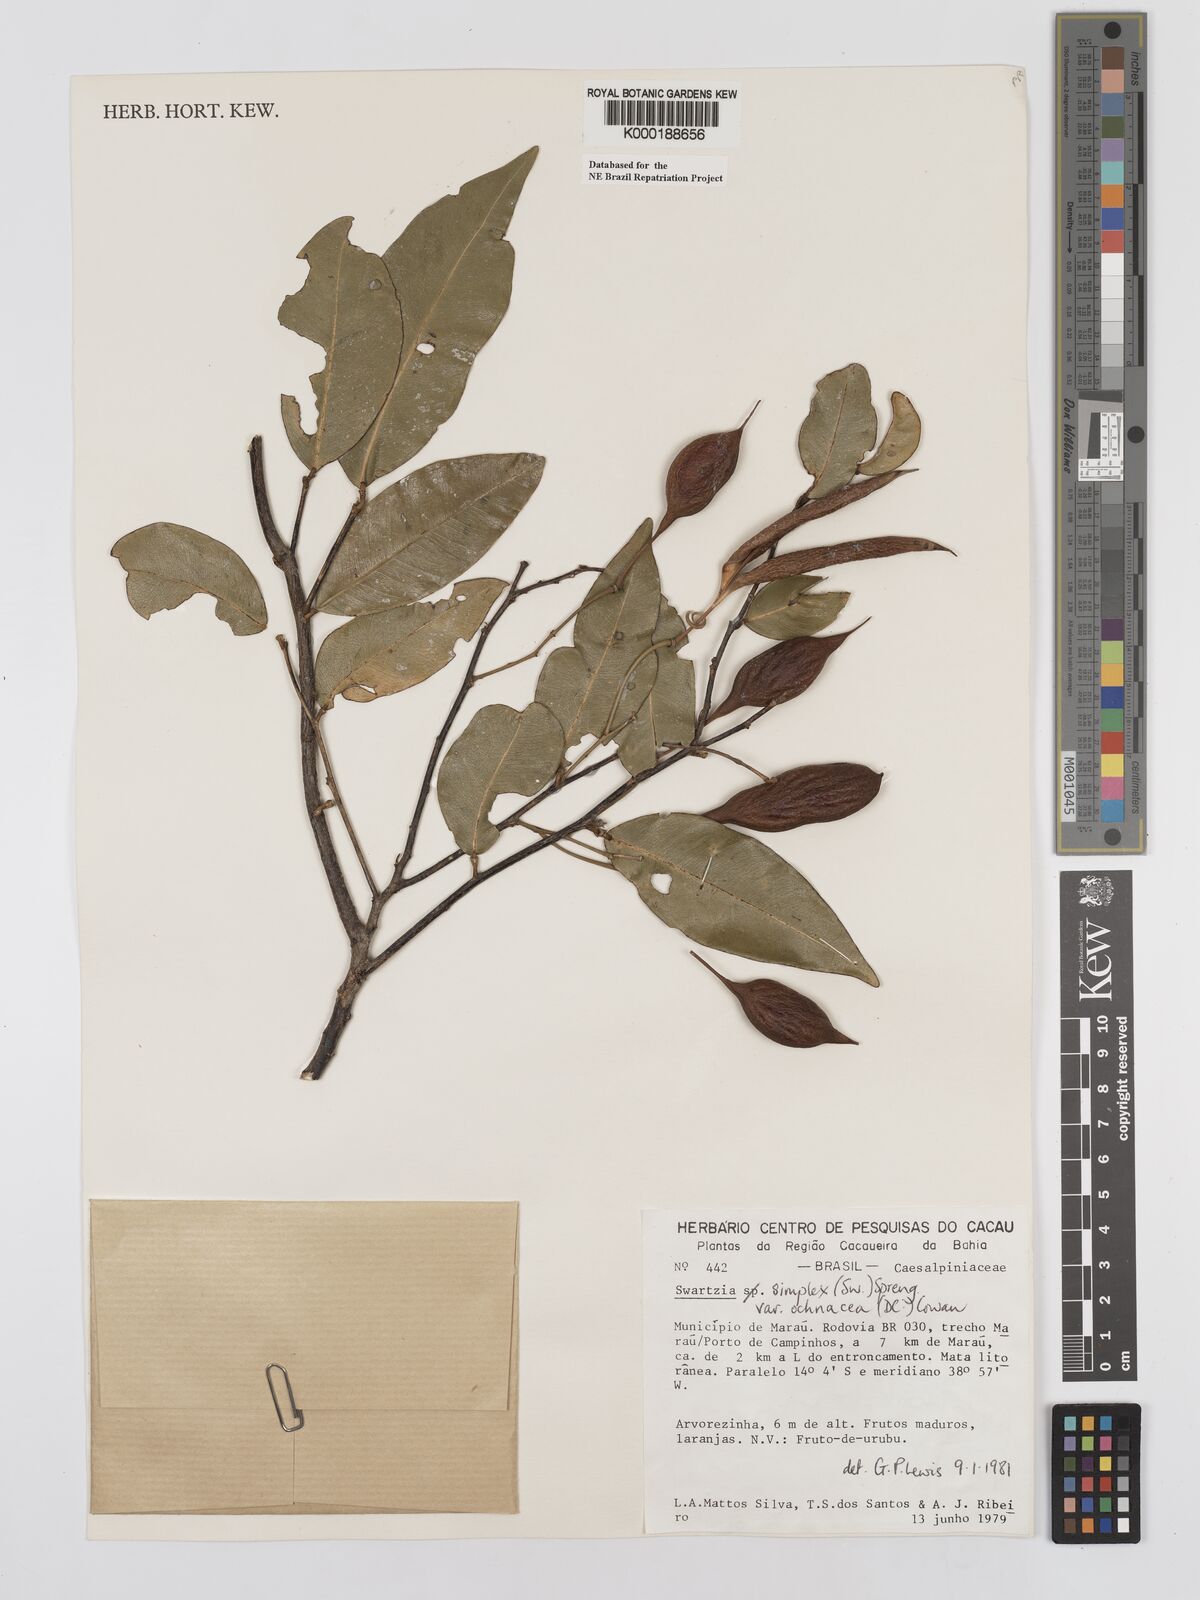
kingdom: Plantae
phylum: Tracheophyta
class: Magnoliopsida
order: Fabales
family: Fabaceae
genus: Swartzia
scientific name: Swartzia simplex
